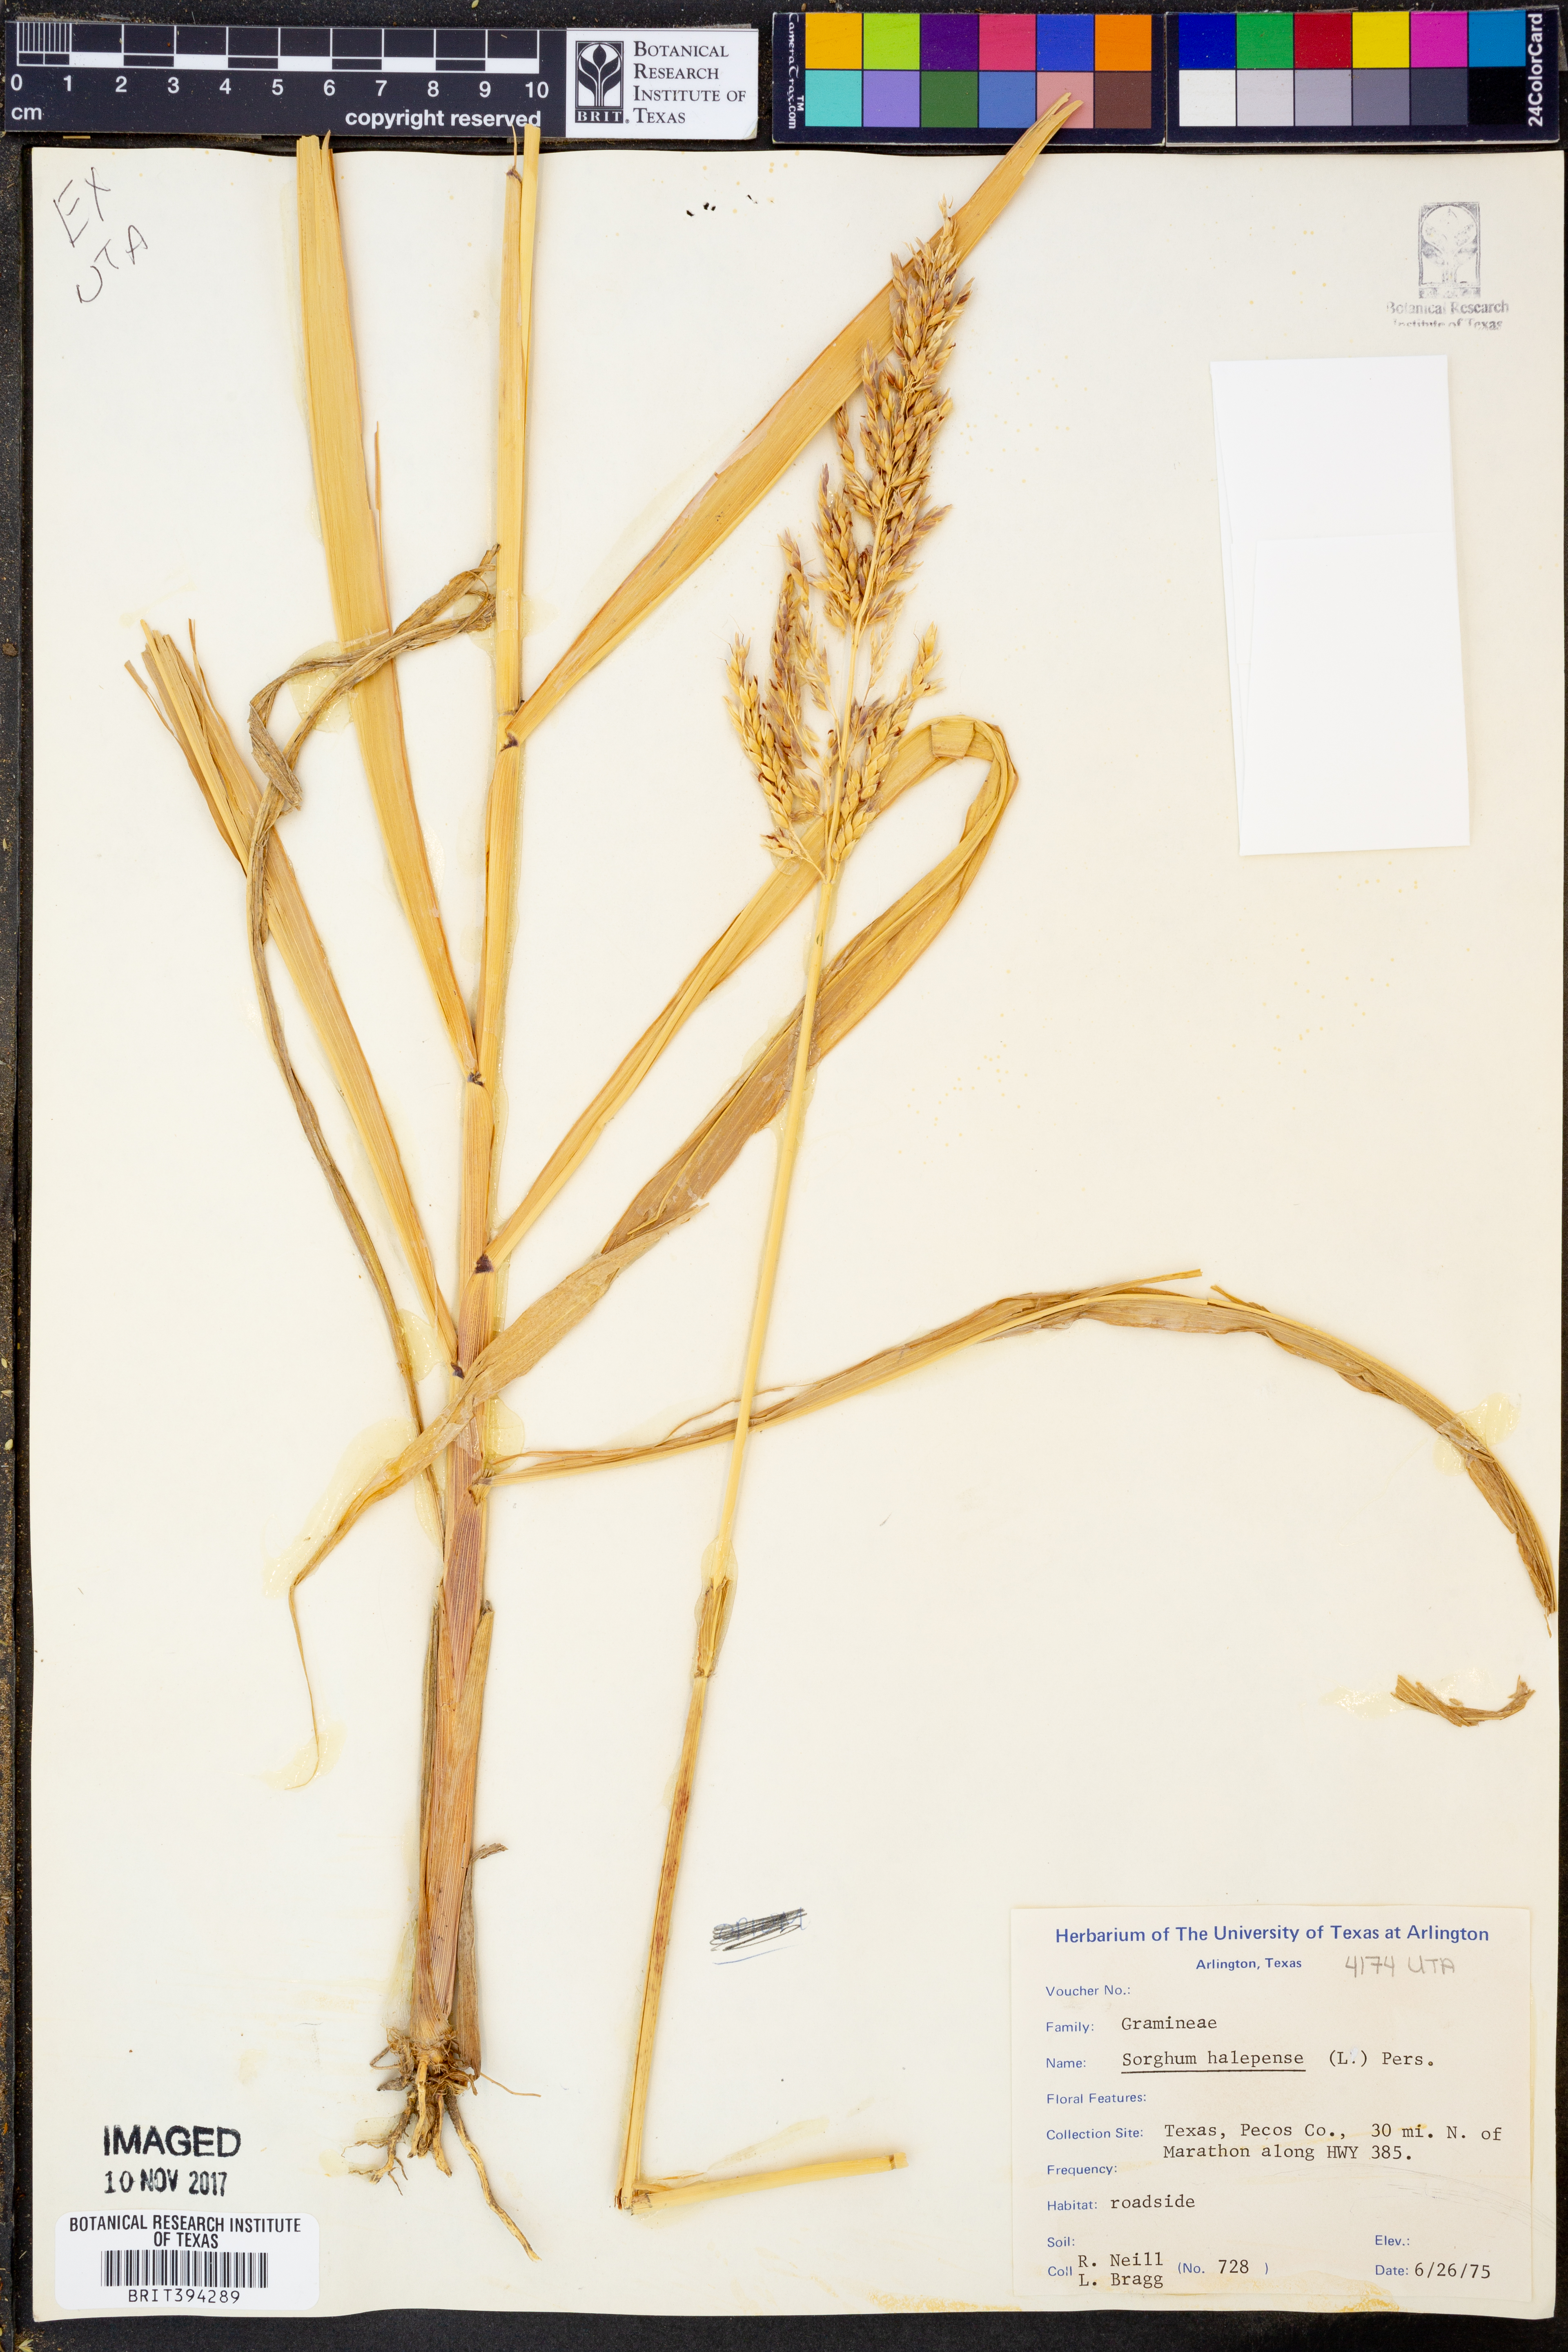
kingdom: Plantae
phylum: Tracheophyta
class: Liliopsida
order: Poales
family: Poaceae
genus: Sorghum
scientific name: Sorghum halepense
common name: Johnson-grass
